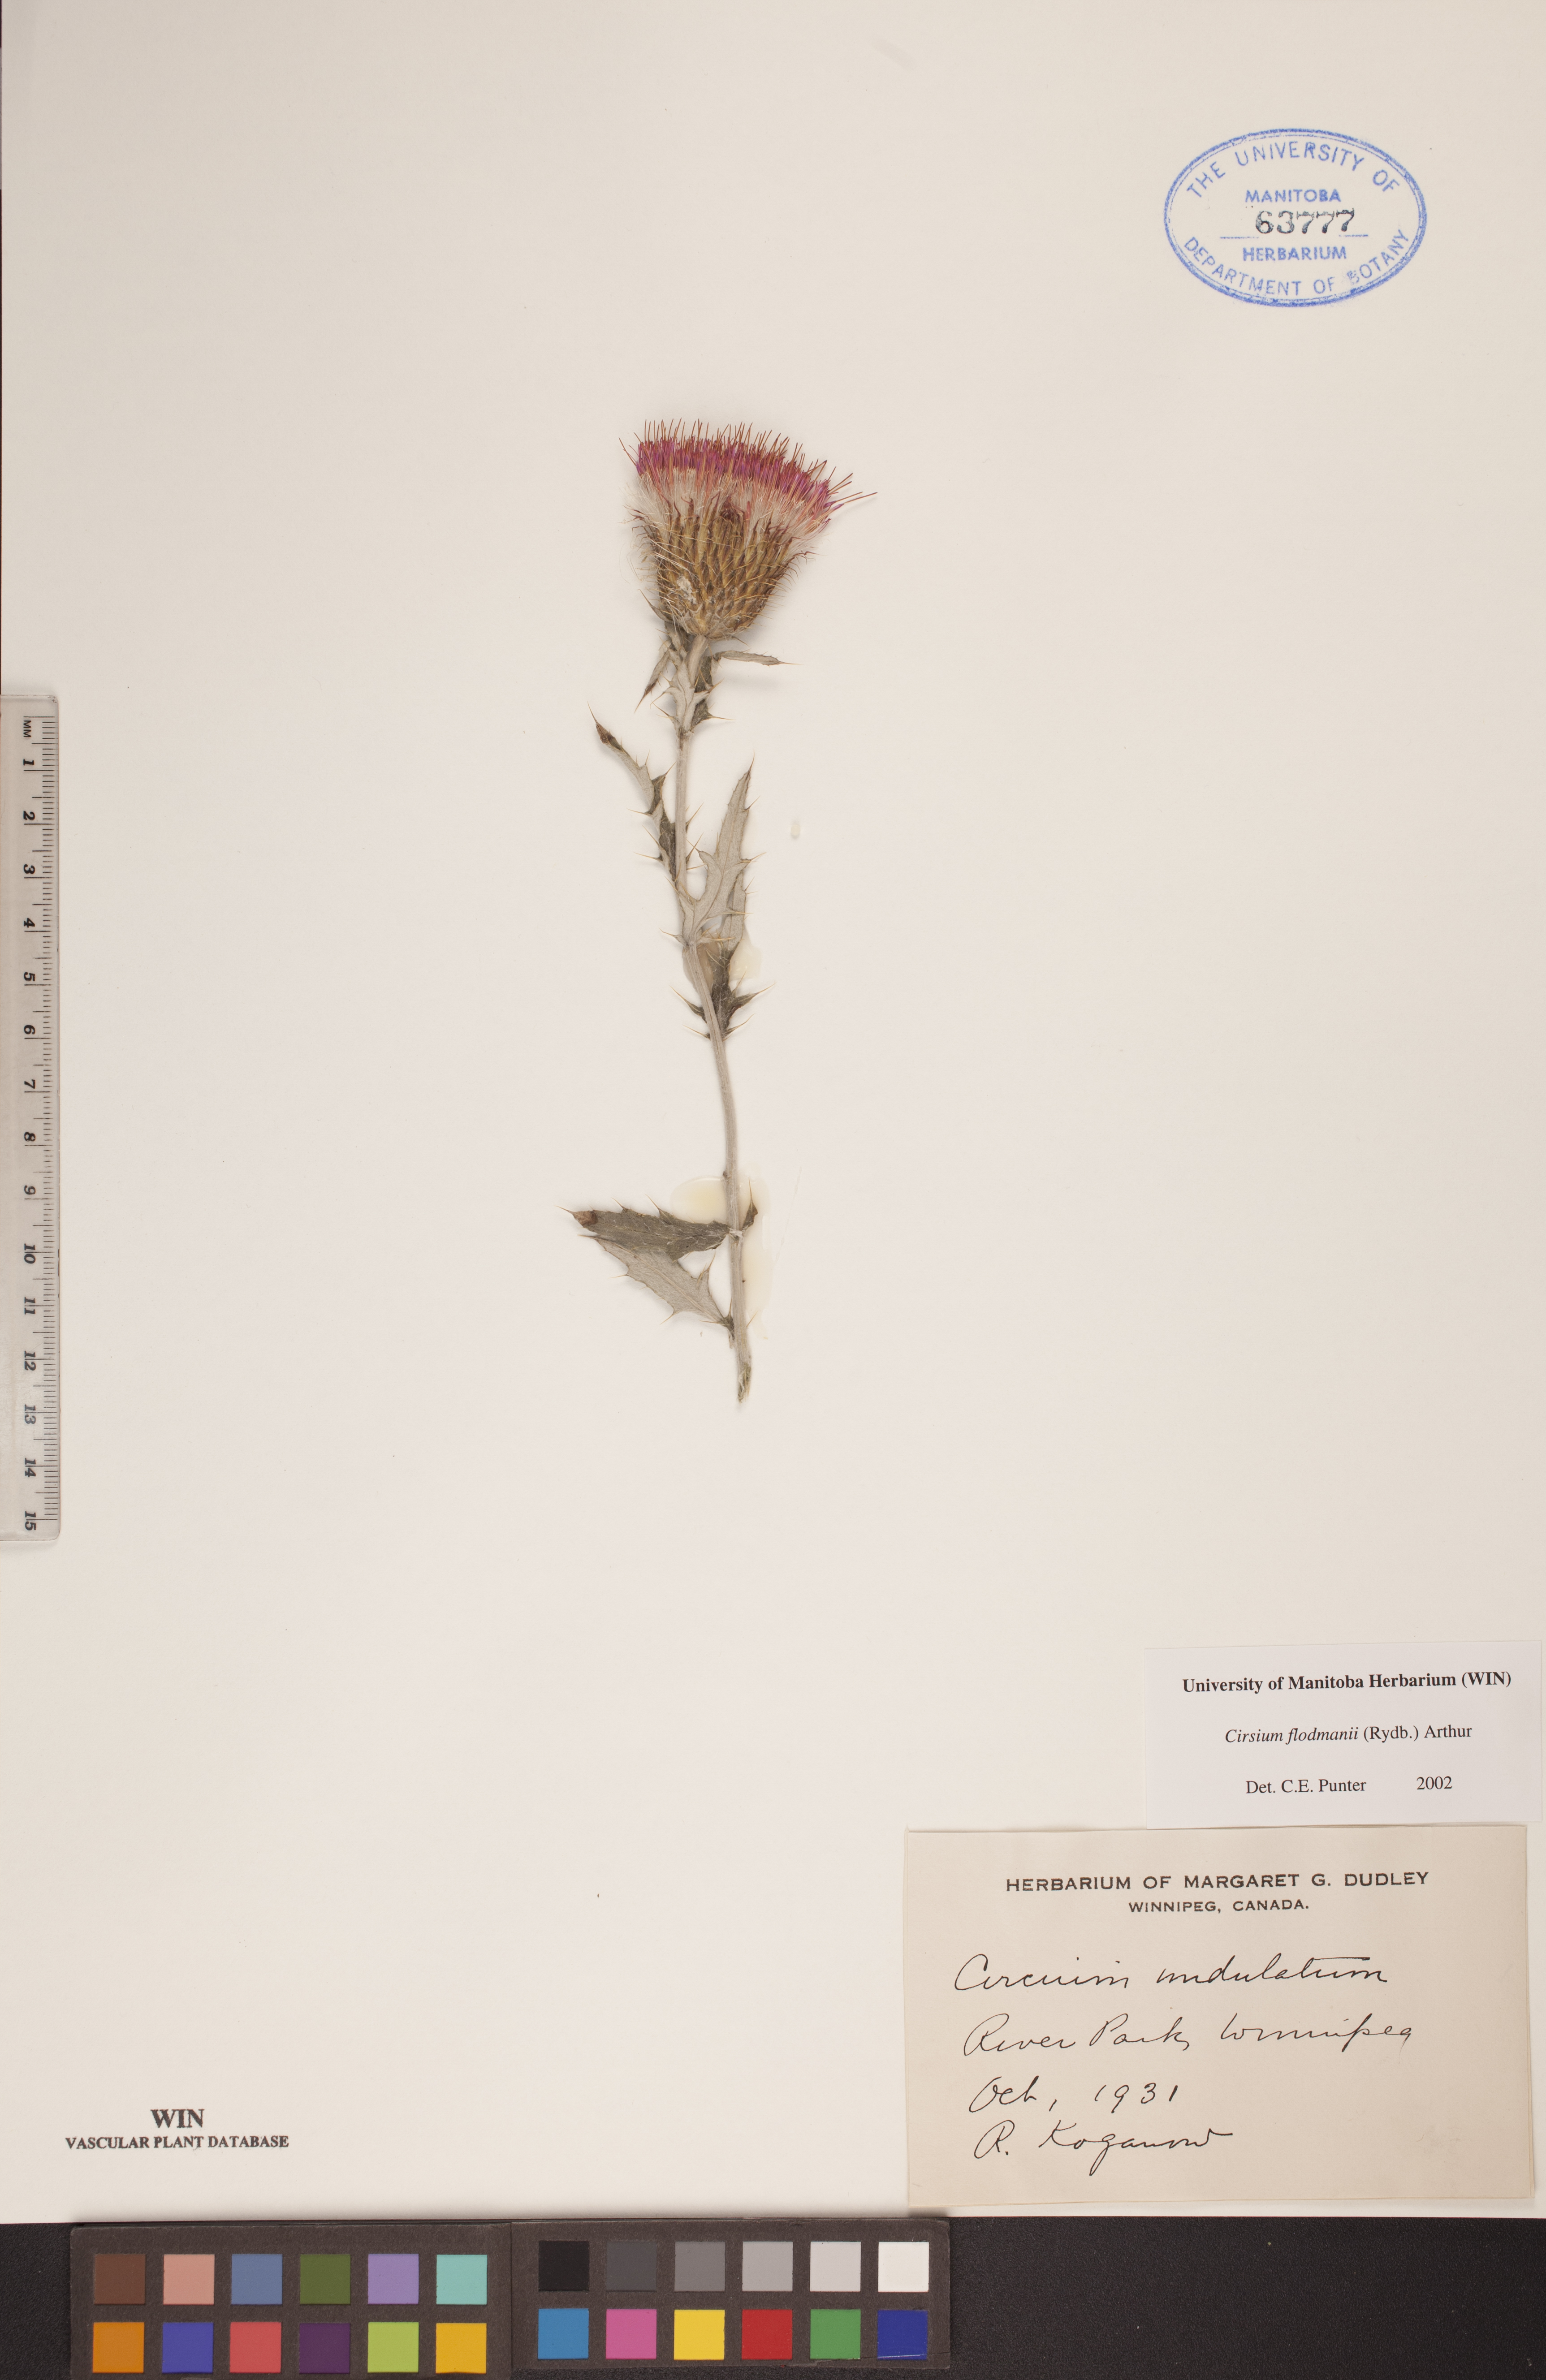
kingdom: Plantae
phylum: Tracheophyta
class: Magnoliopsida
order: Asterales
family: Asteraceae
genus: Cirsium
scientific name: Cirsium flodmanii
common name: Flodman's thistle
